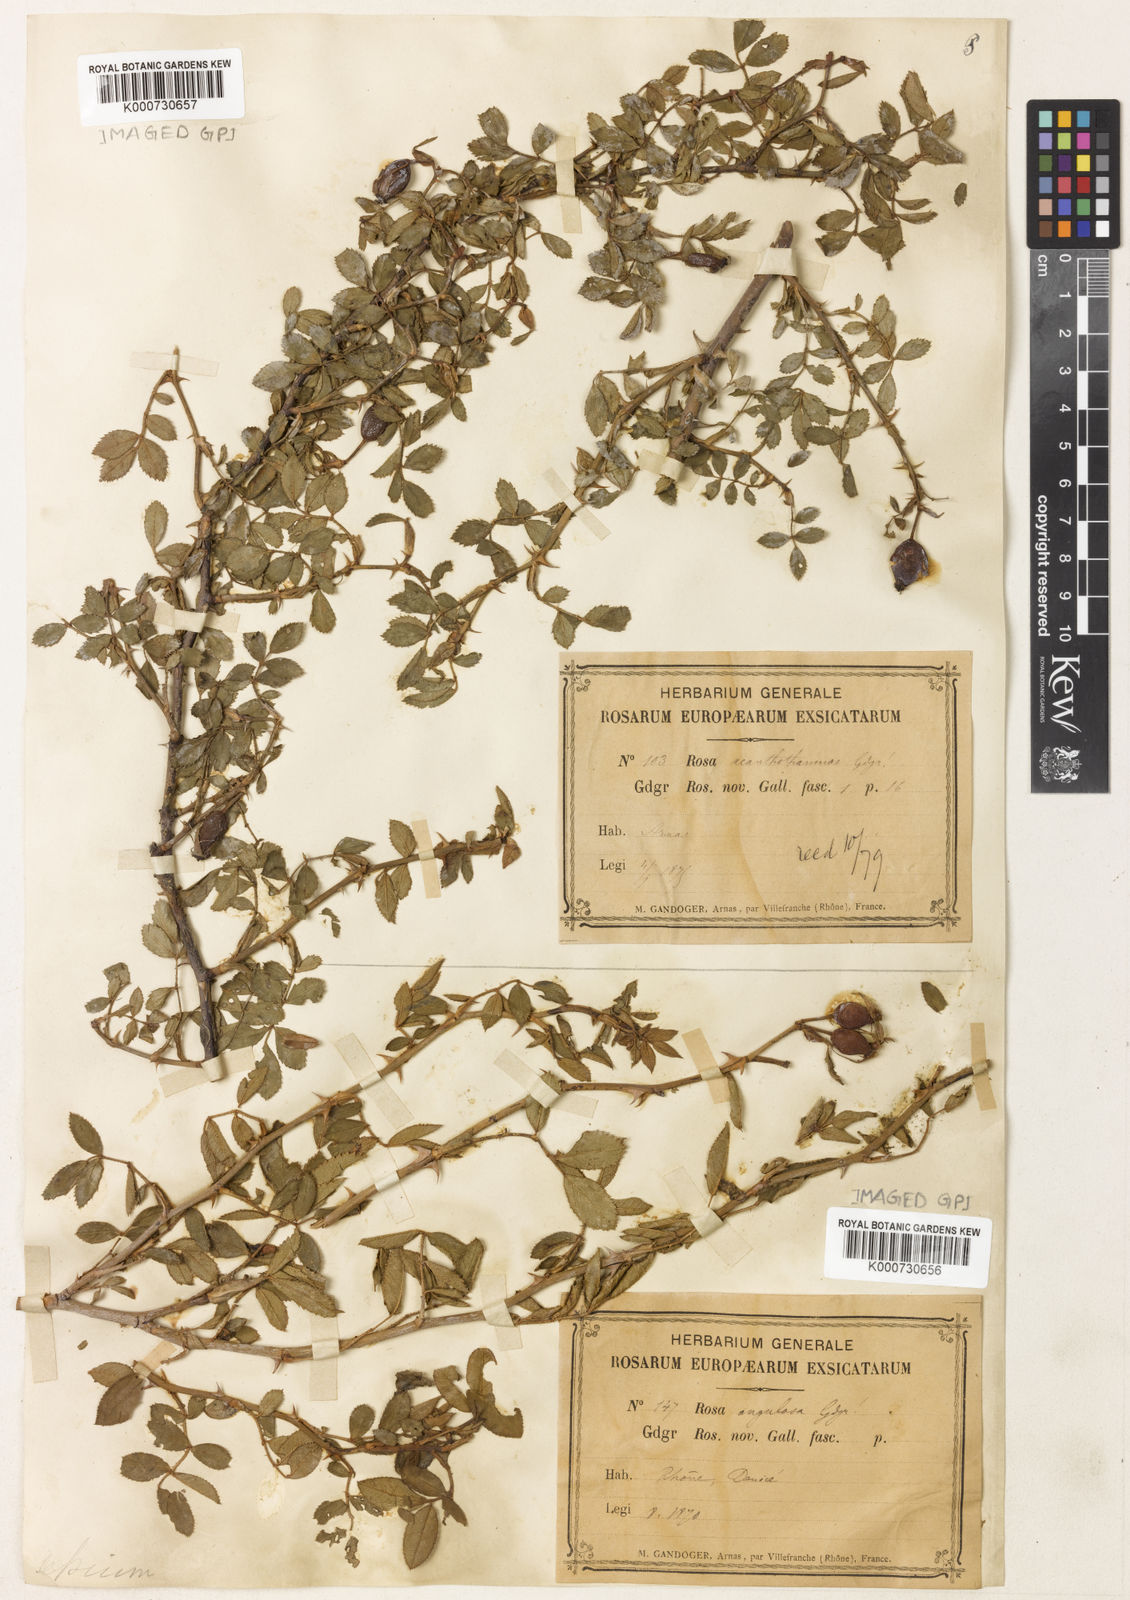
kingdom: Plantae
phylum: Tracheophyta
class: Magnoliopsida
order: Rosales
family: Rosaceae
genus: Rosa
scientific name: Rosa agrestis
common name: Fieldbriar
